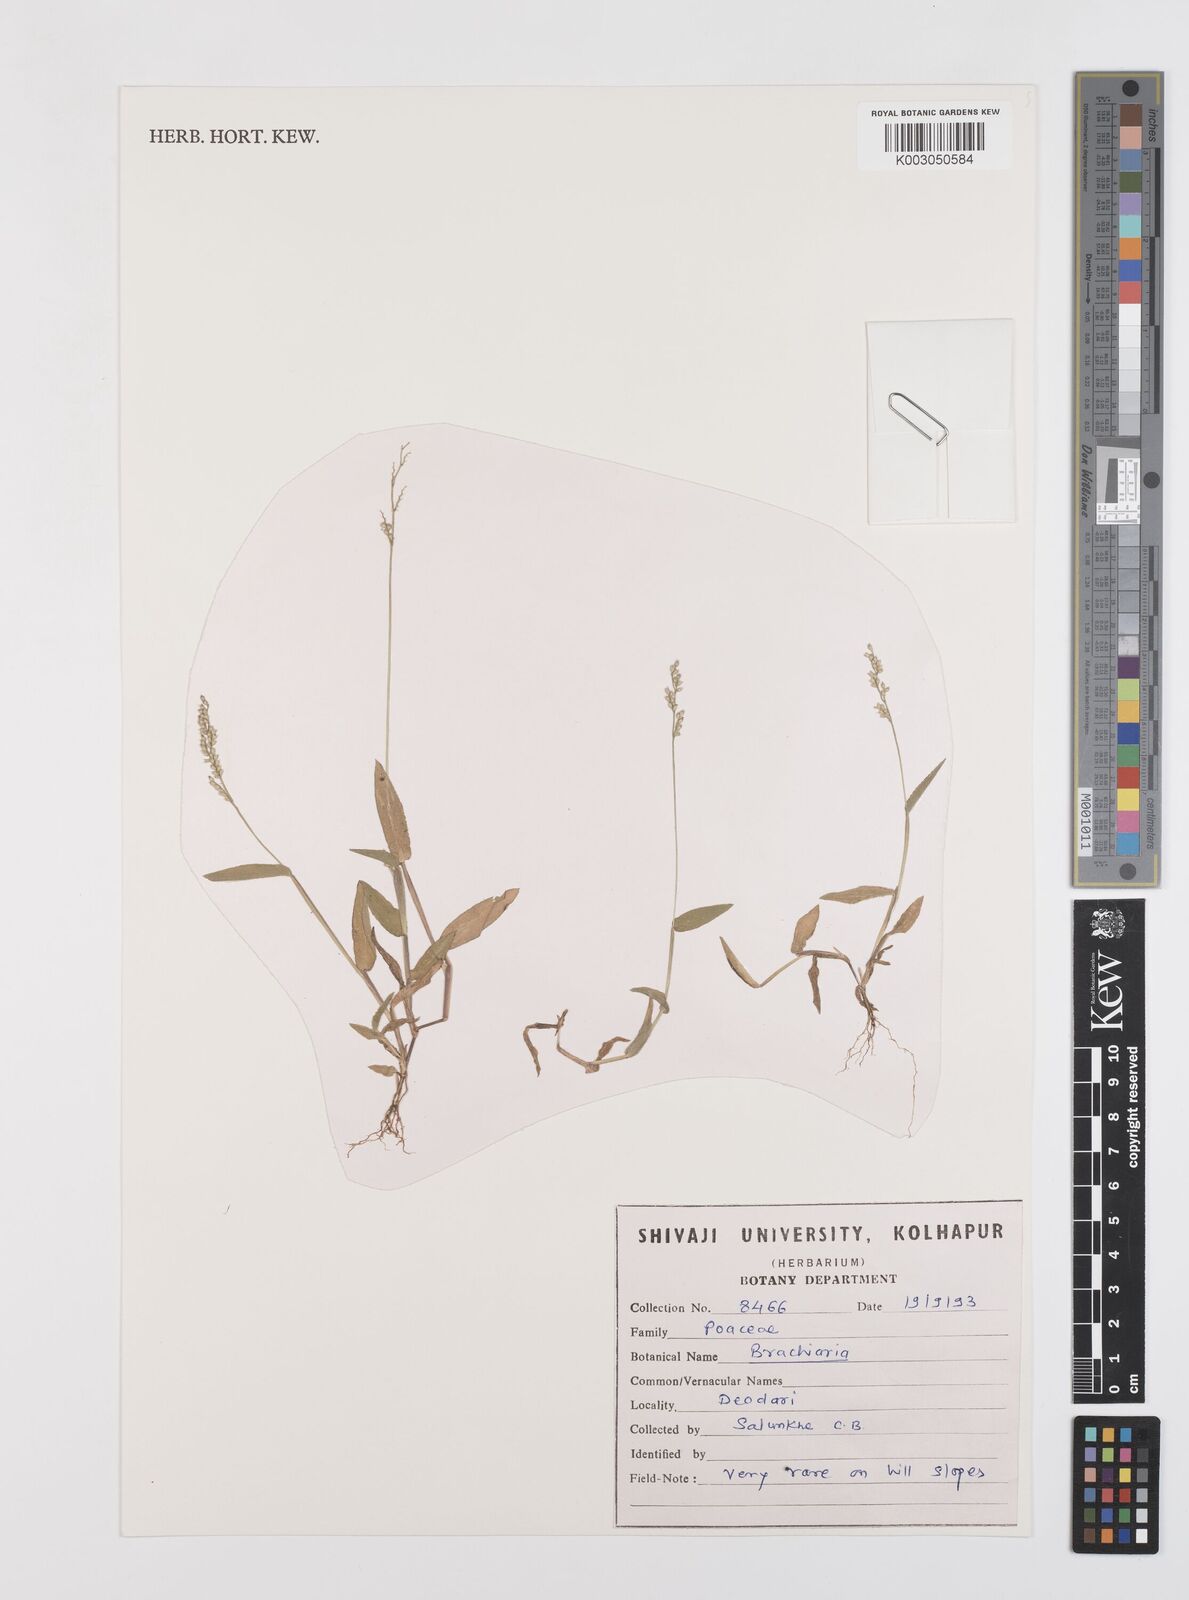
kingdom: Plantae
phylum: Tracheophyta
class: Liliopsida
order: Poales
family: Poaceae
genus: Urochloa
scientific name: Urochloa villosa
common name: Hairy signalgrass
